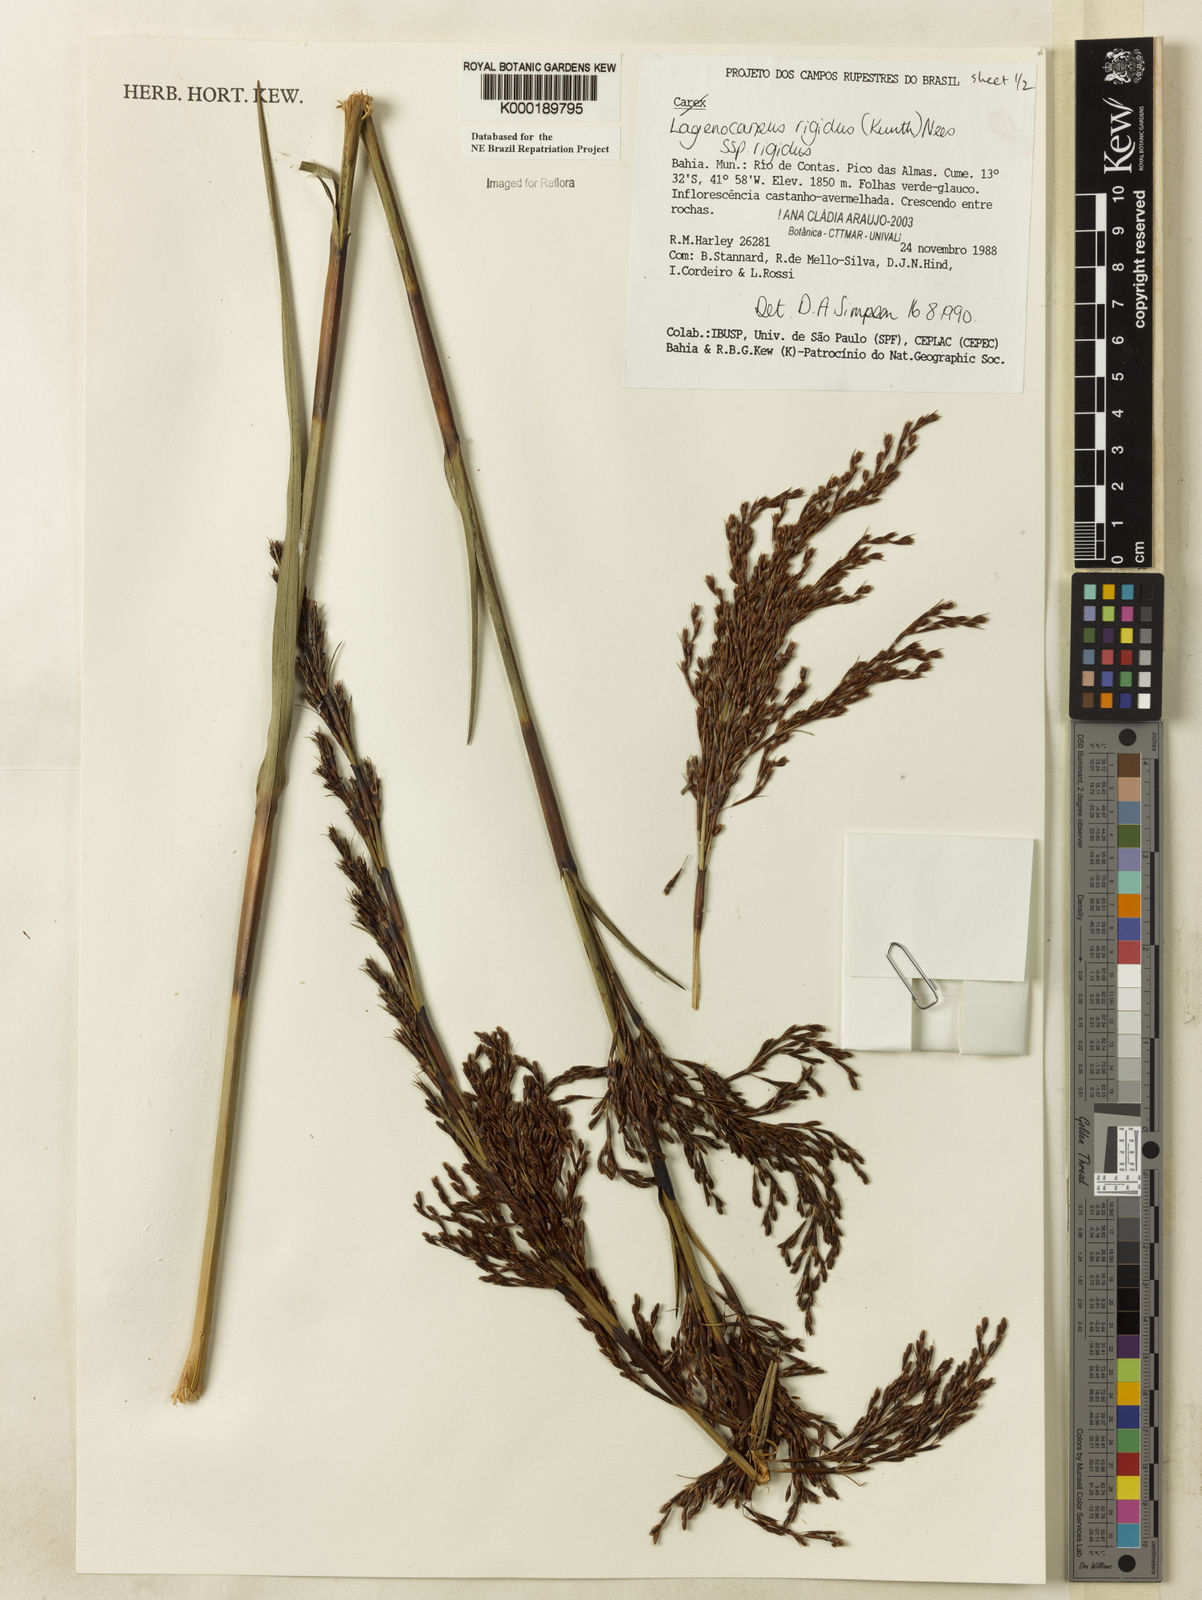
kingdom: Plantae
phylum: Tracheophyta
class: Liliopsida
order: Poales
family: Cyperaceae
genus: Lagenocarpus
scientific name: Lagenocarpus rigidus
